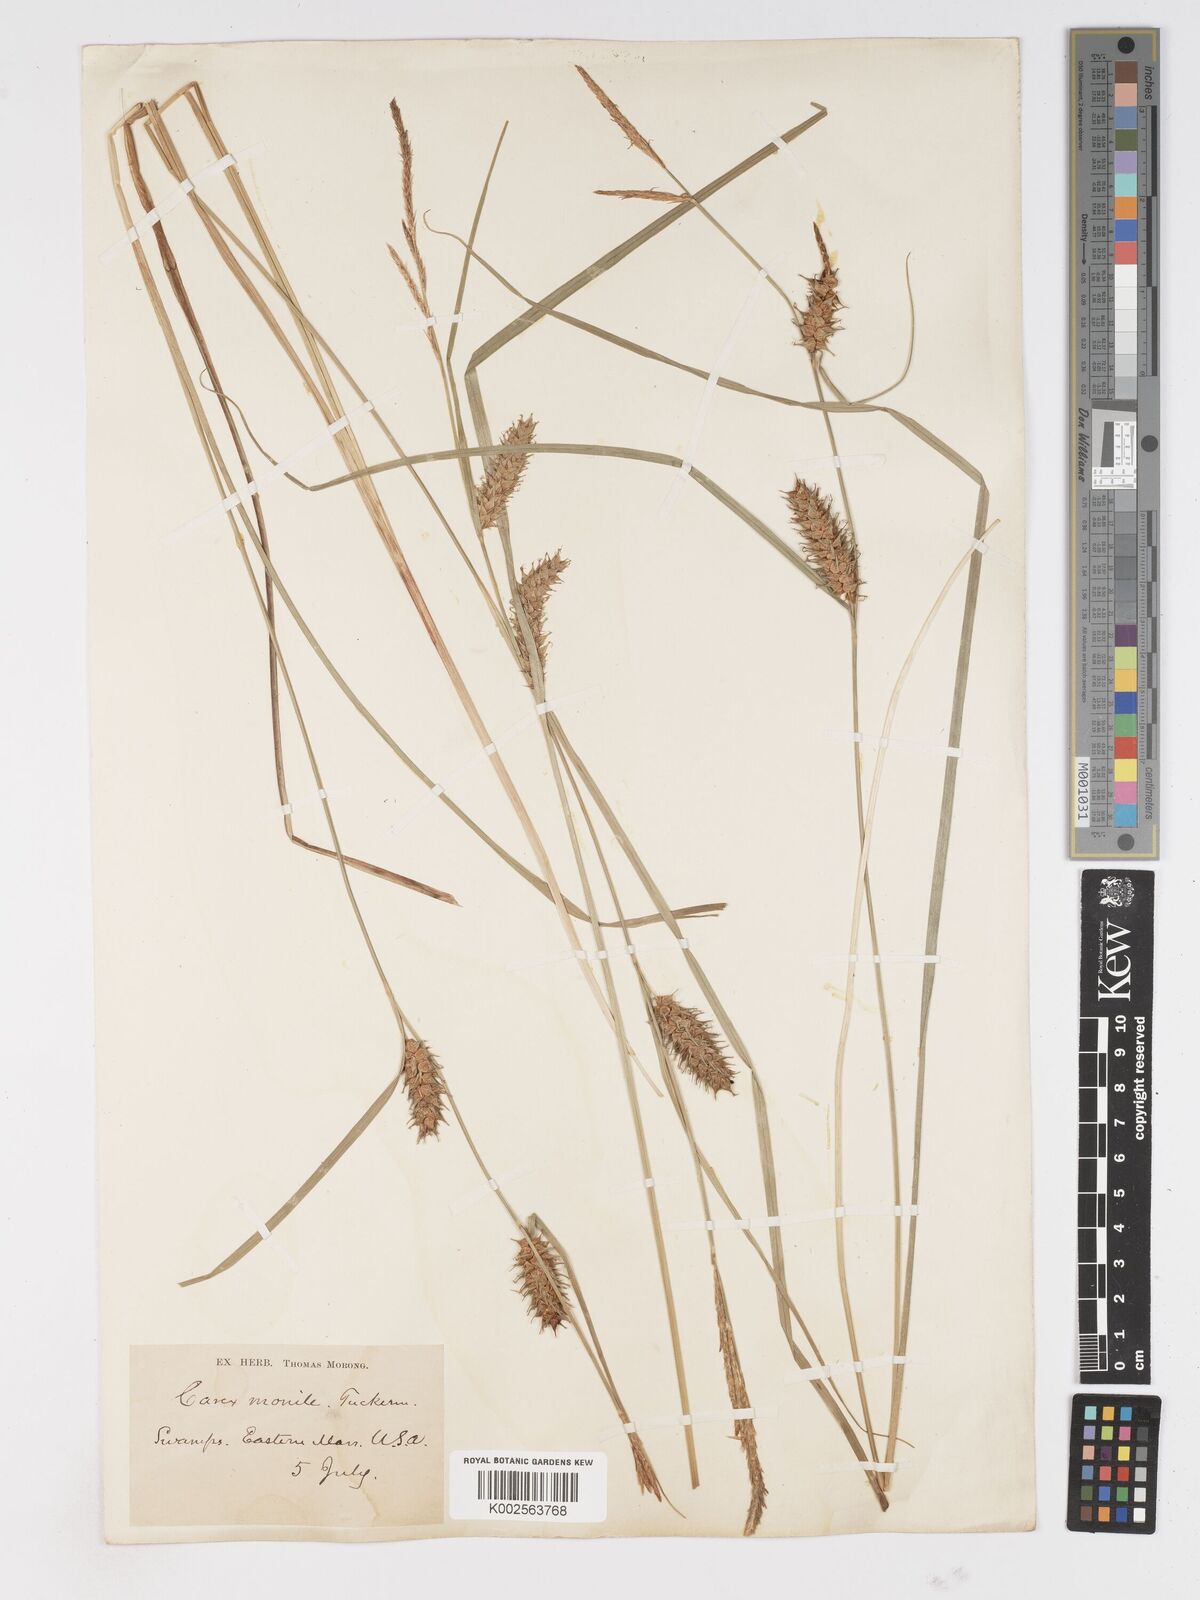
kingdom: Plantae
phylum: Tracheophyta
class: Liliopsida
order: Poales
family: Cyperaceae
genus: Carex
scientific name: Carex vesicaria
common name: Bladder-sedge
